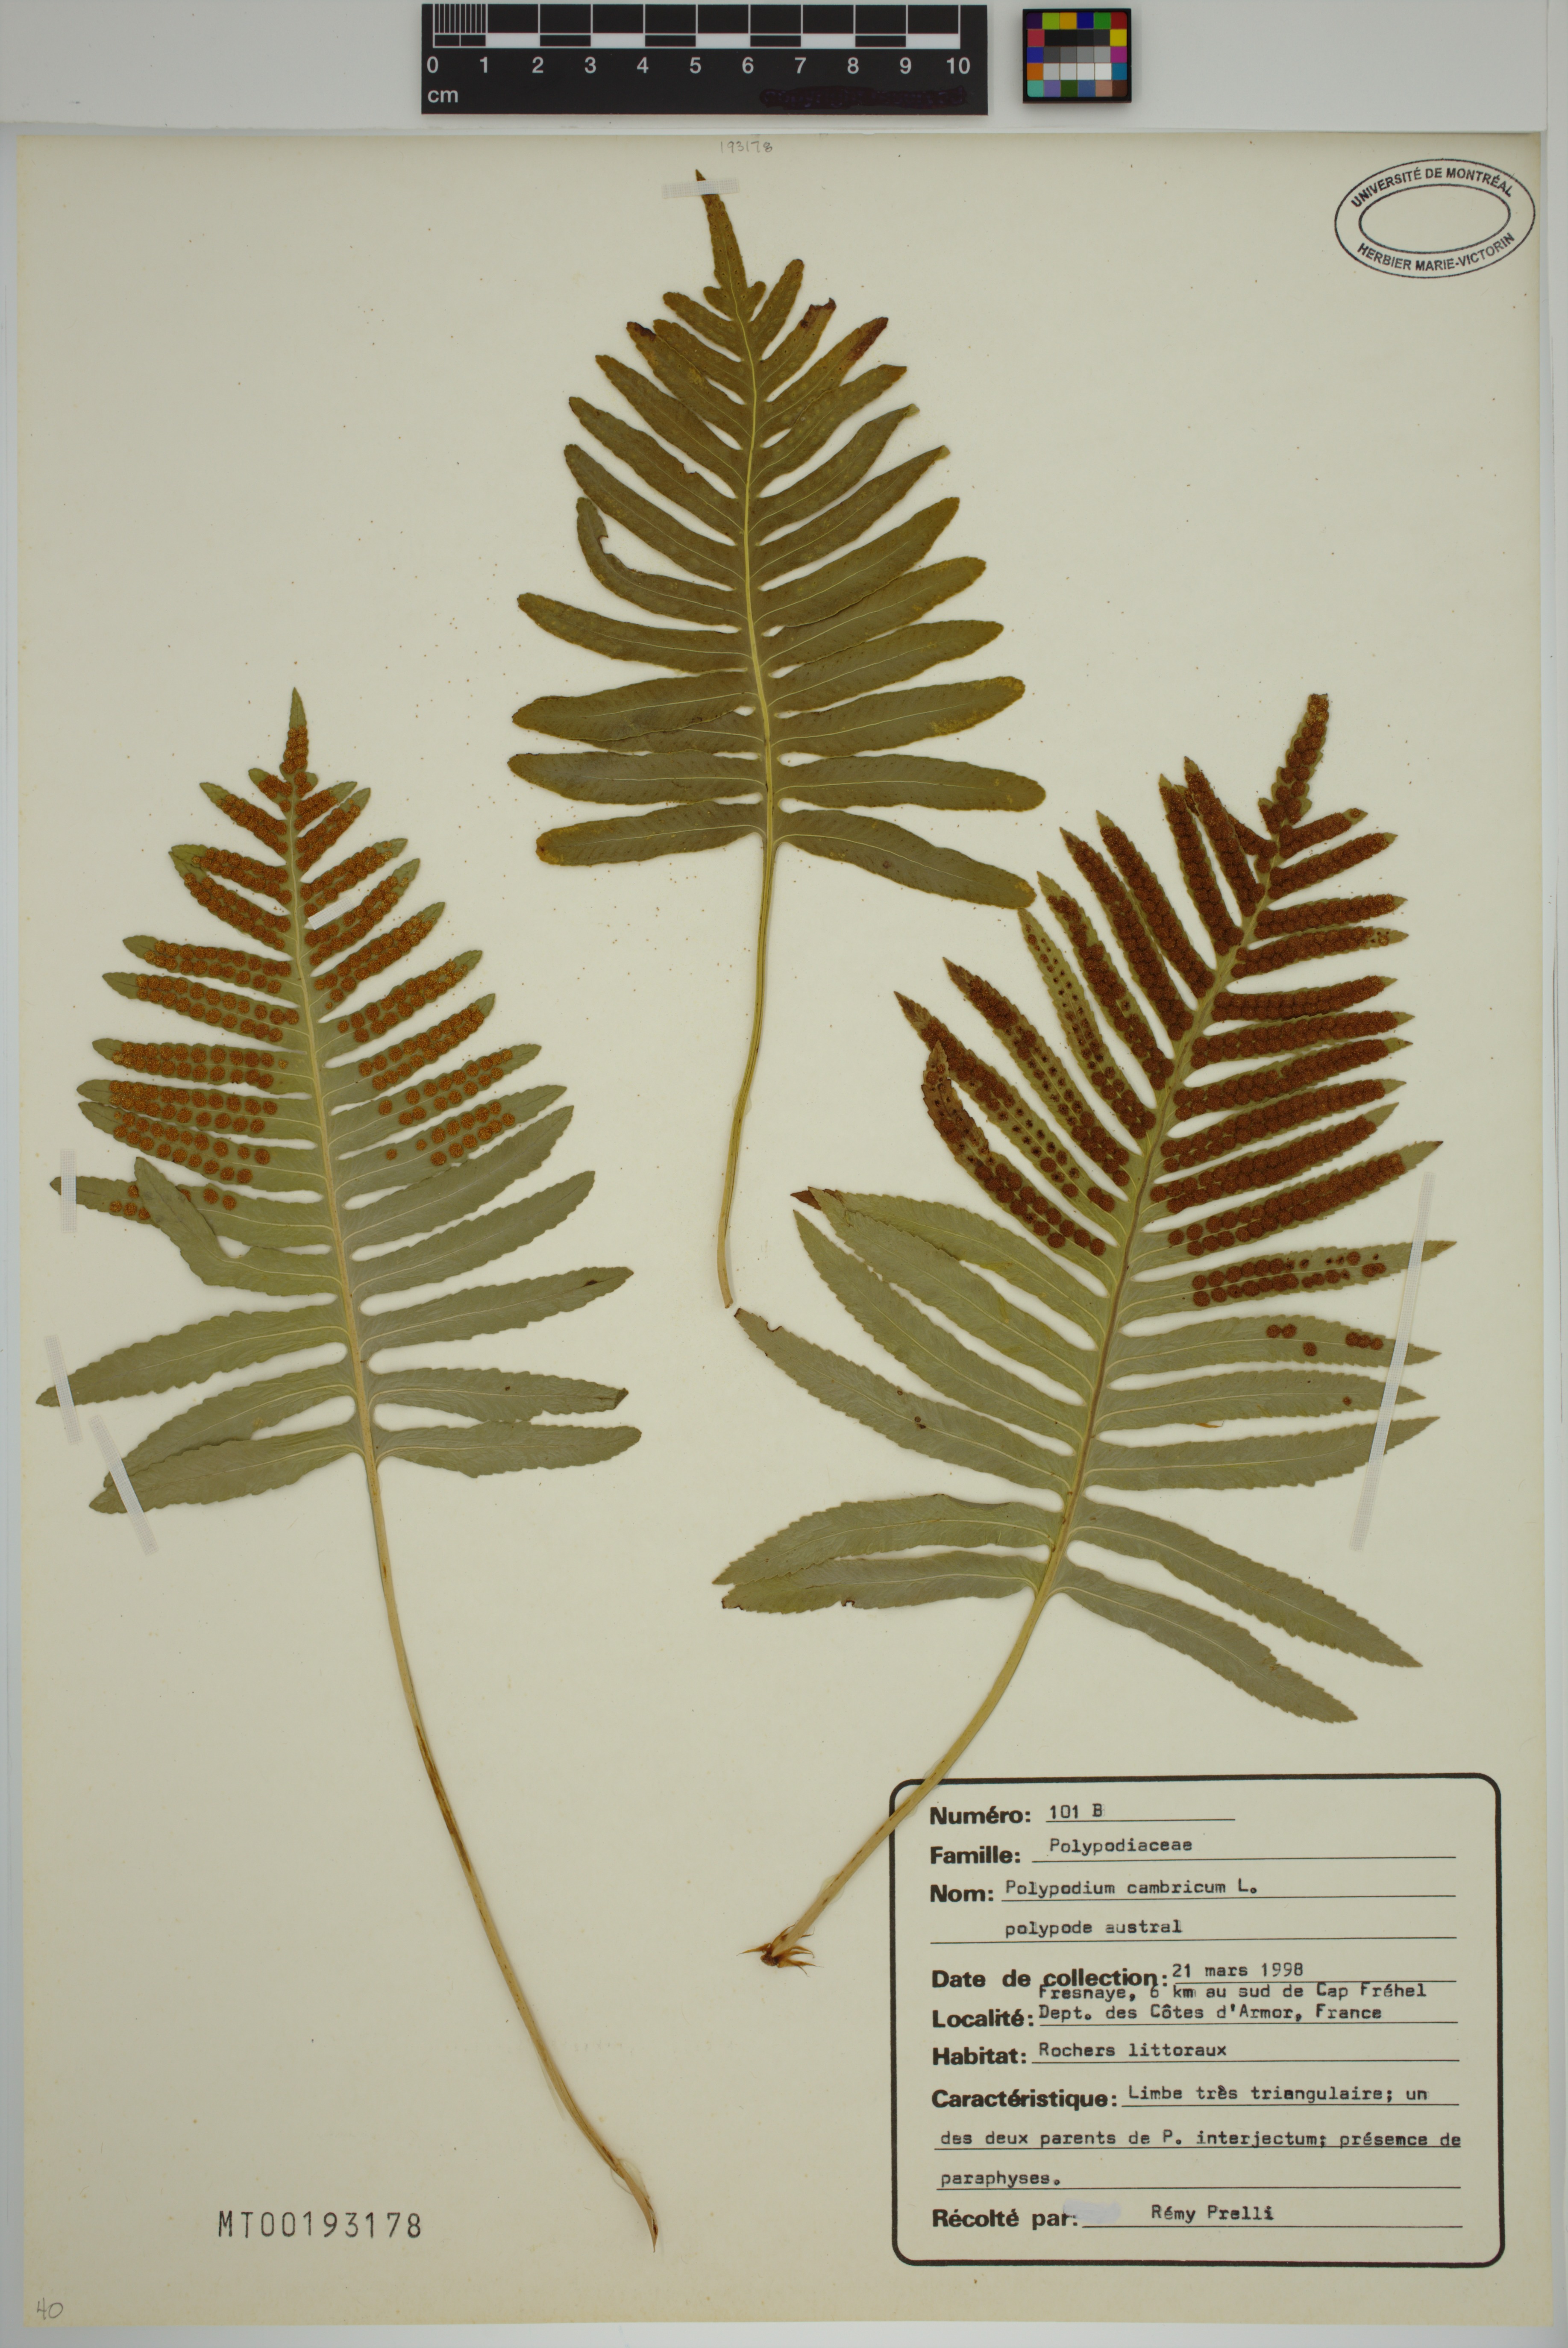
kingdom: Plantae
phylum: Tracheophyta
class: Polypodiopsida
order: Polypodiales
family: Polypodiaceae
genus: Polypodium
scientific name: Polypodium cambricum
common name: Southern polypody
